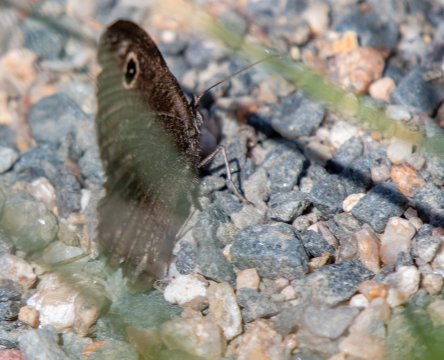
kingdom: Animalia
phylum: Arthropoda
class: Insecta
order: Lepidoptera
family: Nymphalidae
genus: Cercyonis
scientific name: Cercyonis pegala
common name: Common Wood-Nymph
